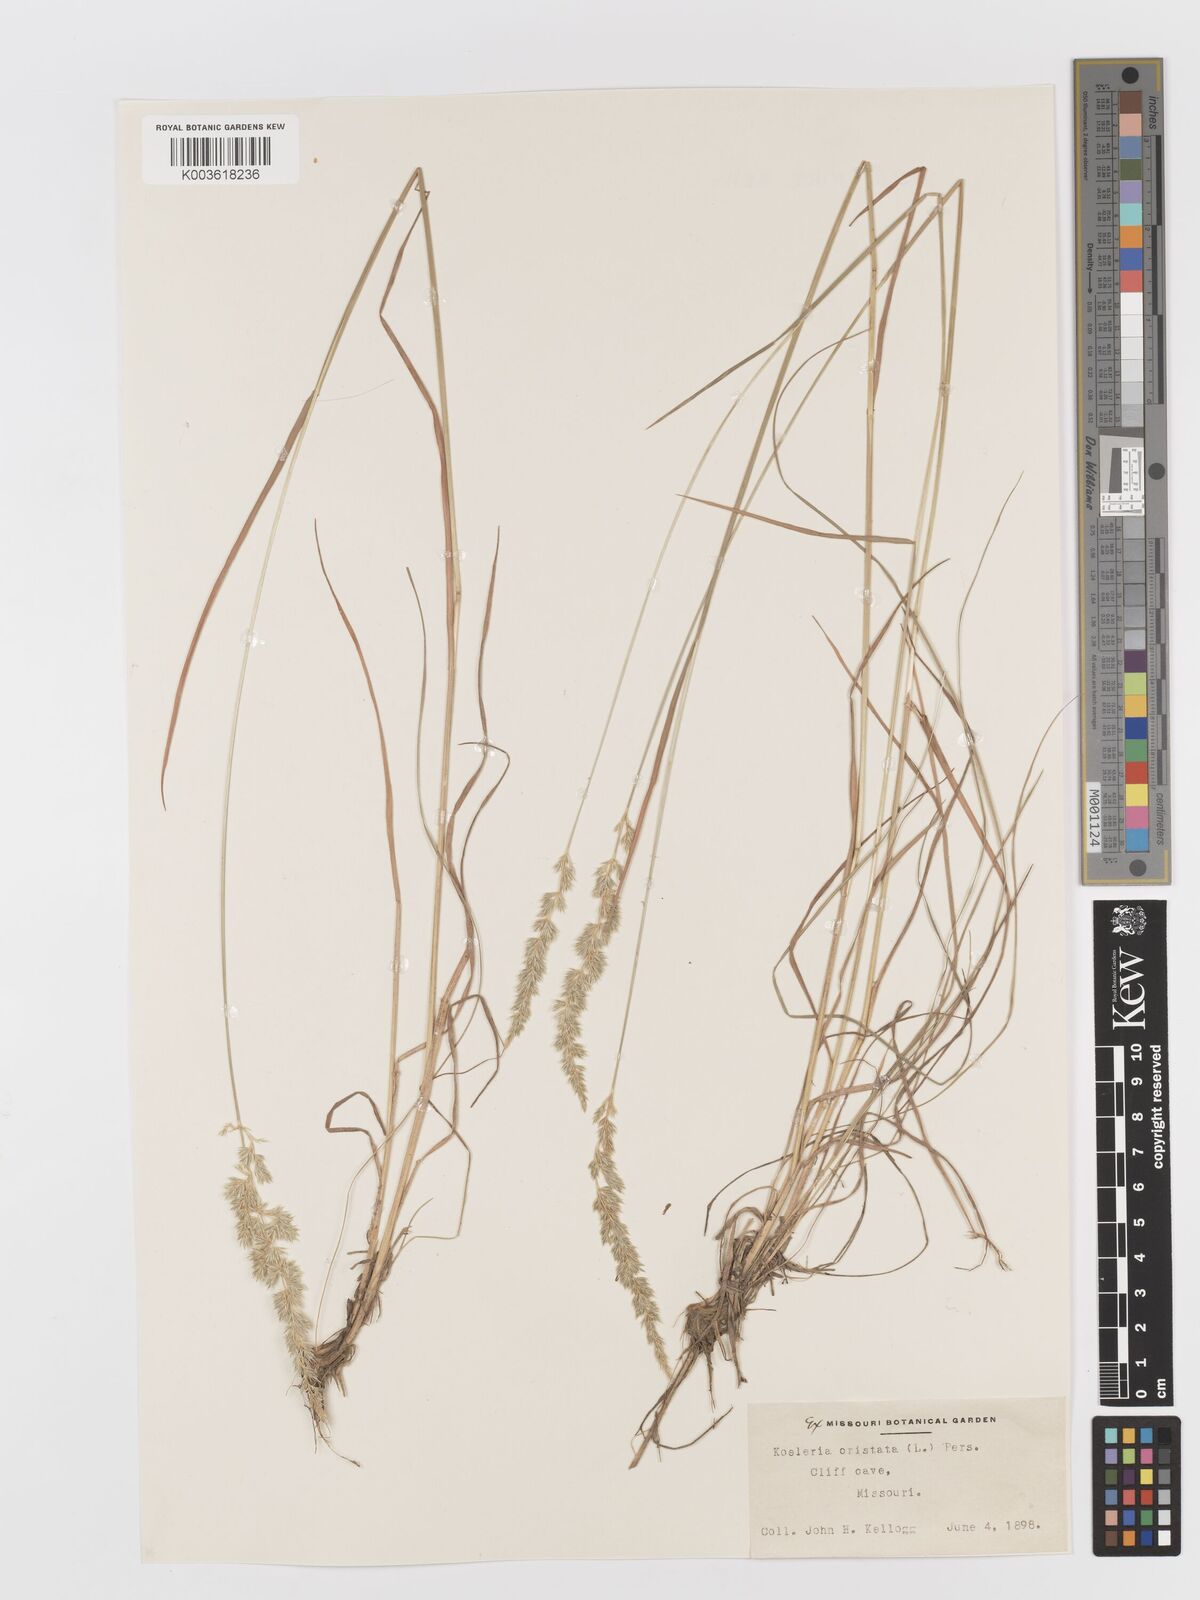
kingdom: Plantae
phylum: Tracheophyta
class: Liliopsida
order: Poales
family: Poaceae
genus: Koeleria
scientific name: Koeleria macrantha
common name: Crested hair-grass
